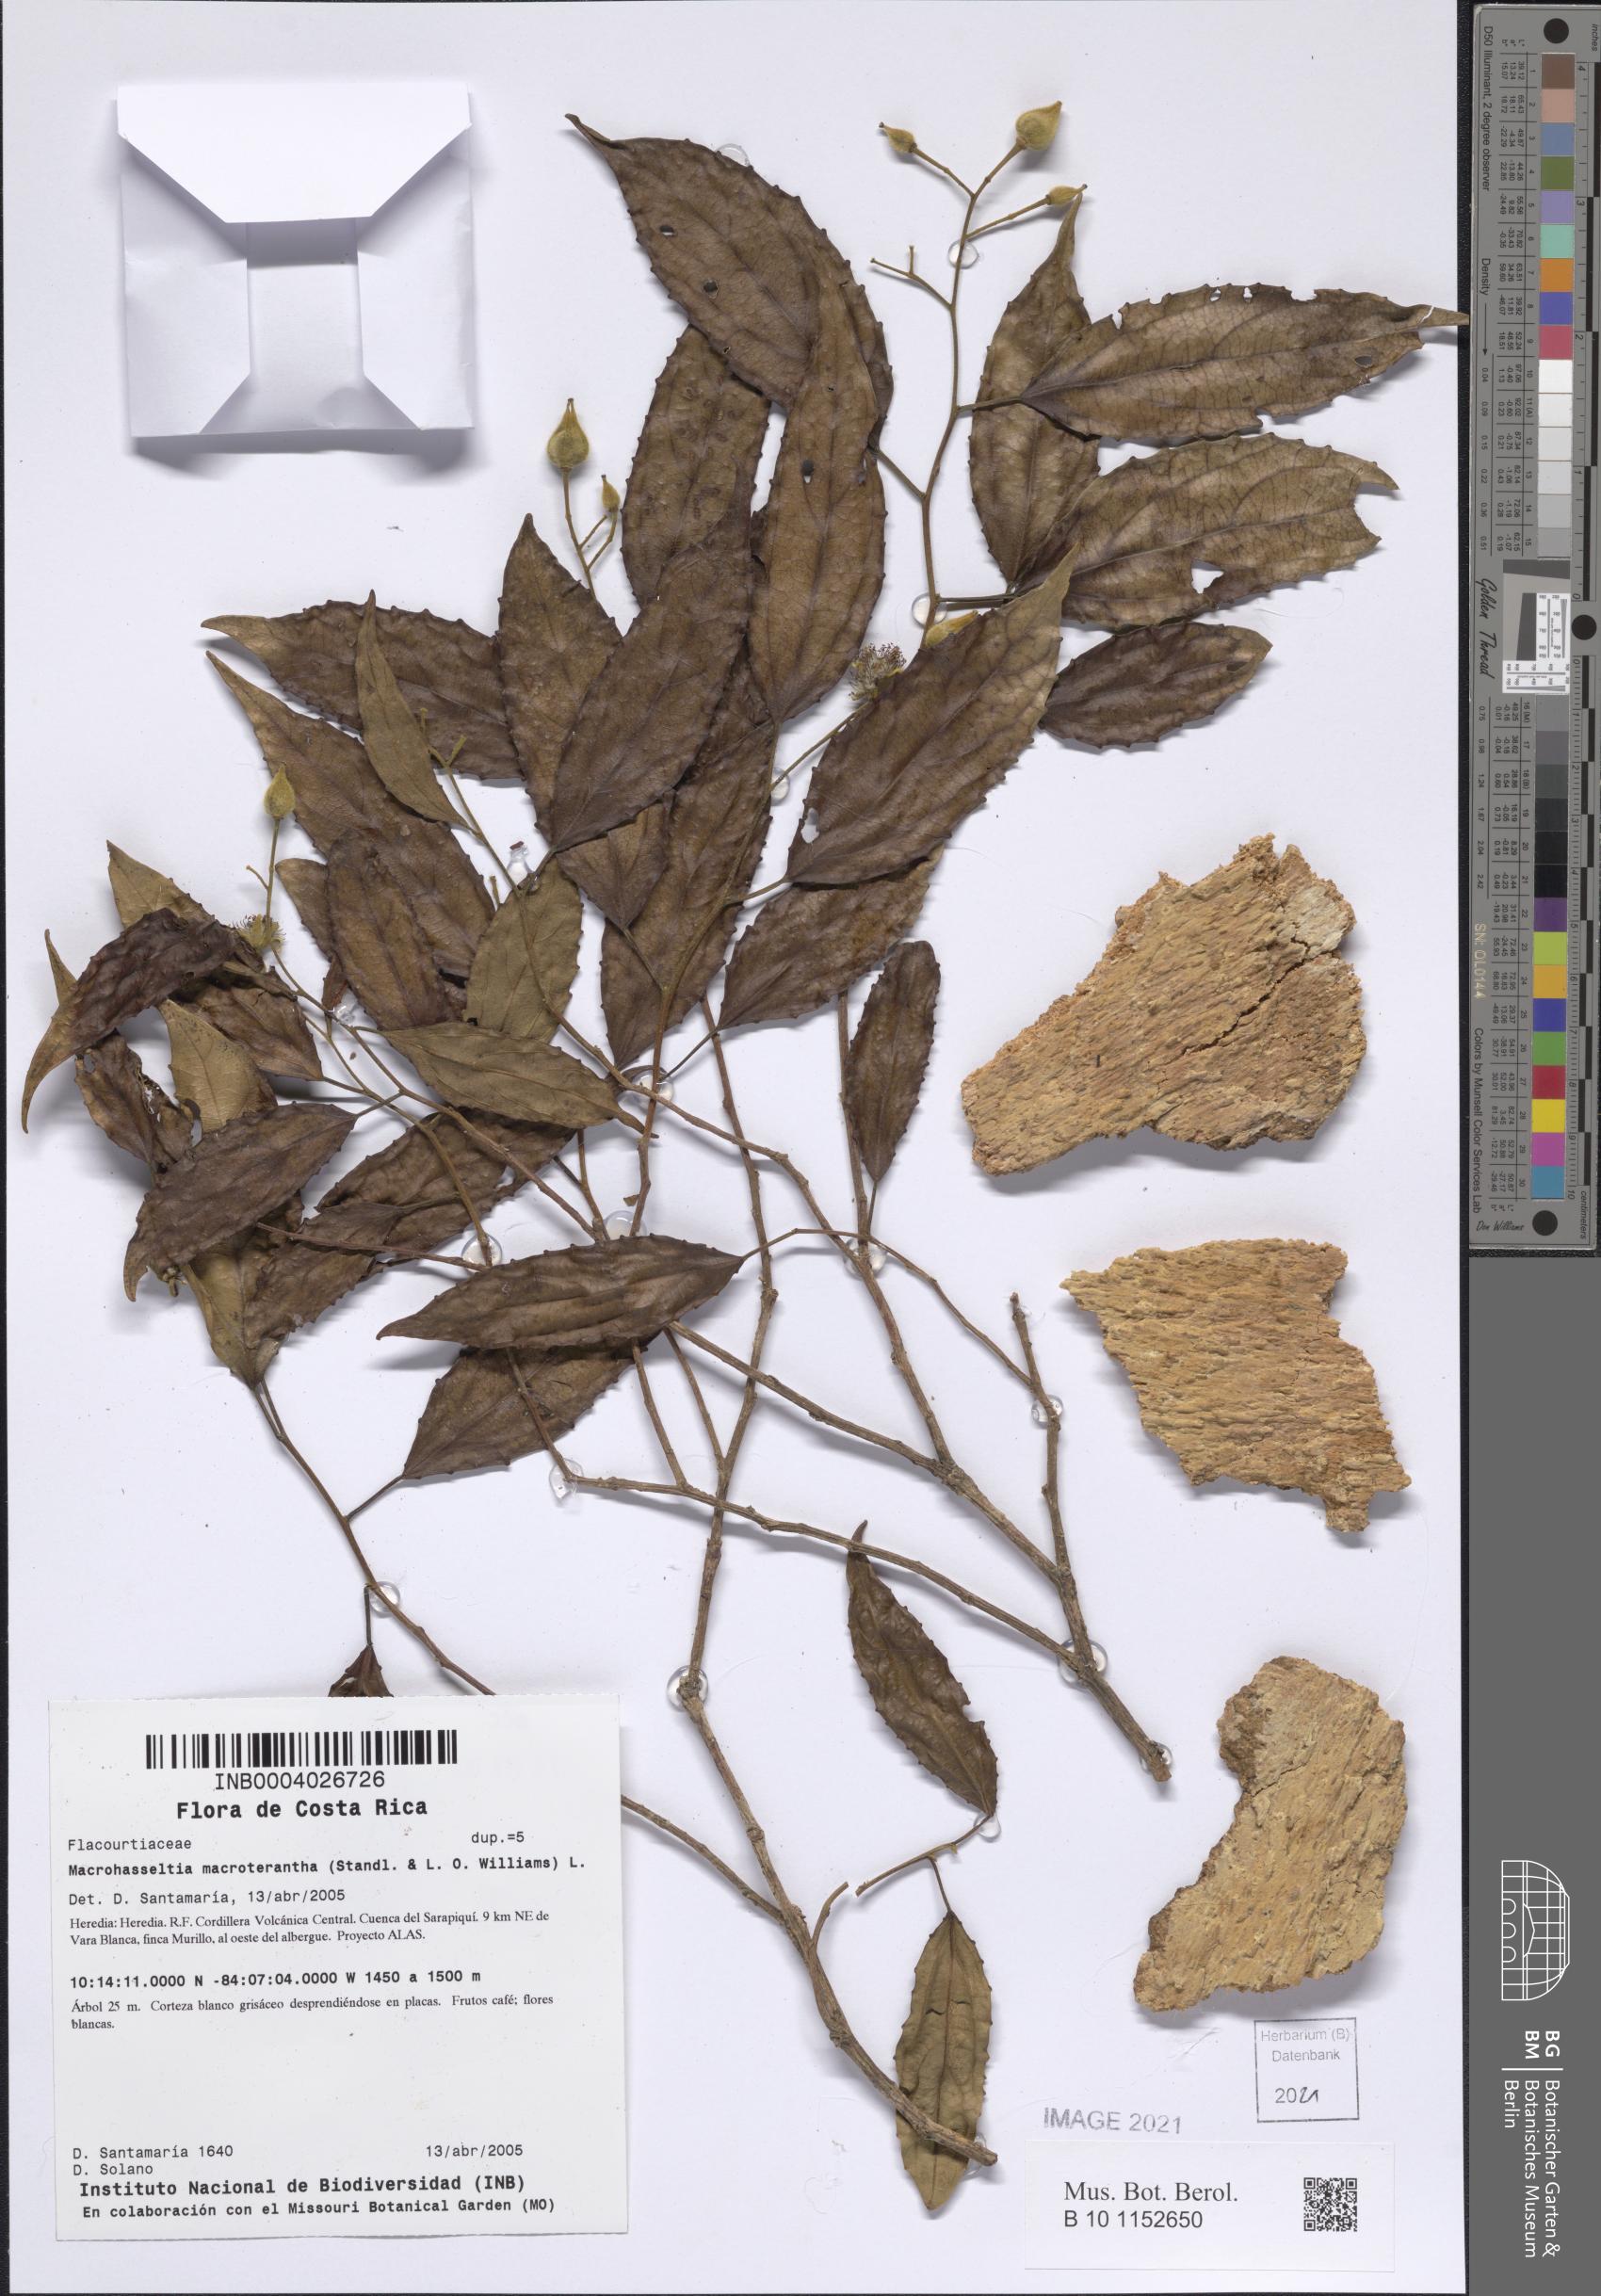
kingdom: Plantae
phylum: Tracheophyta
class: Magnoliopsida
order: Malpighiales
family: Salicaceae
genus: Macrohasseltia
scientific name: Macrohasseltia macroterantha
